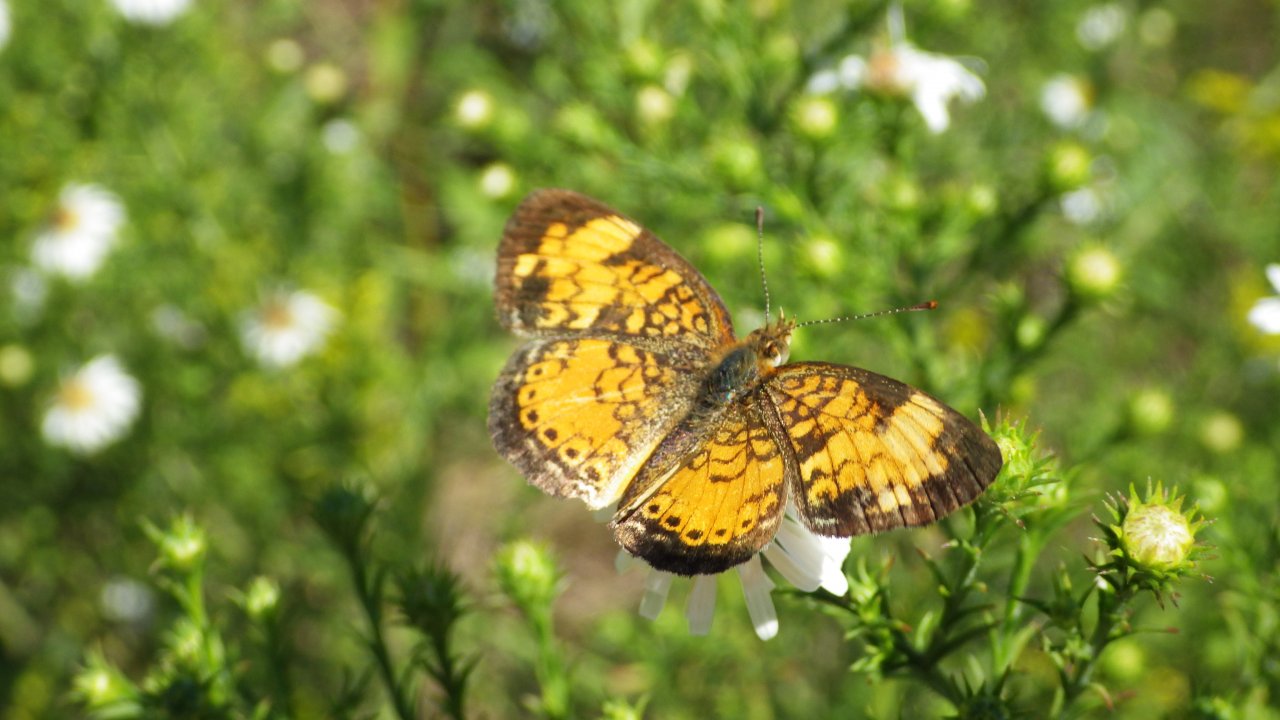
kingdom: Animalia
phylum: Arthropoda
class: Insecta
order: Lepidoptera
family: Nymphalidae
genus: Phyciodes
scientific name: Phyciodes tharos
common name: Northern Crescent
